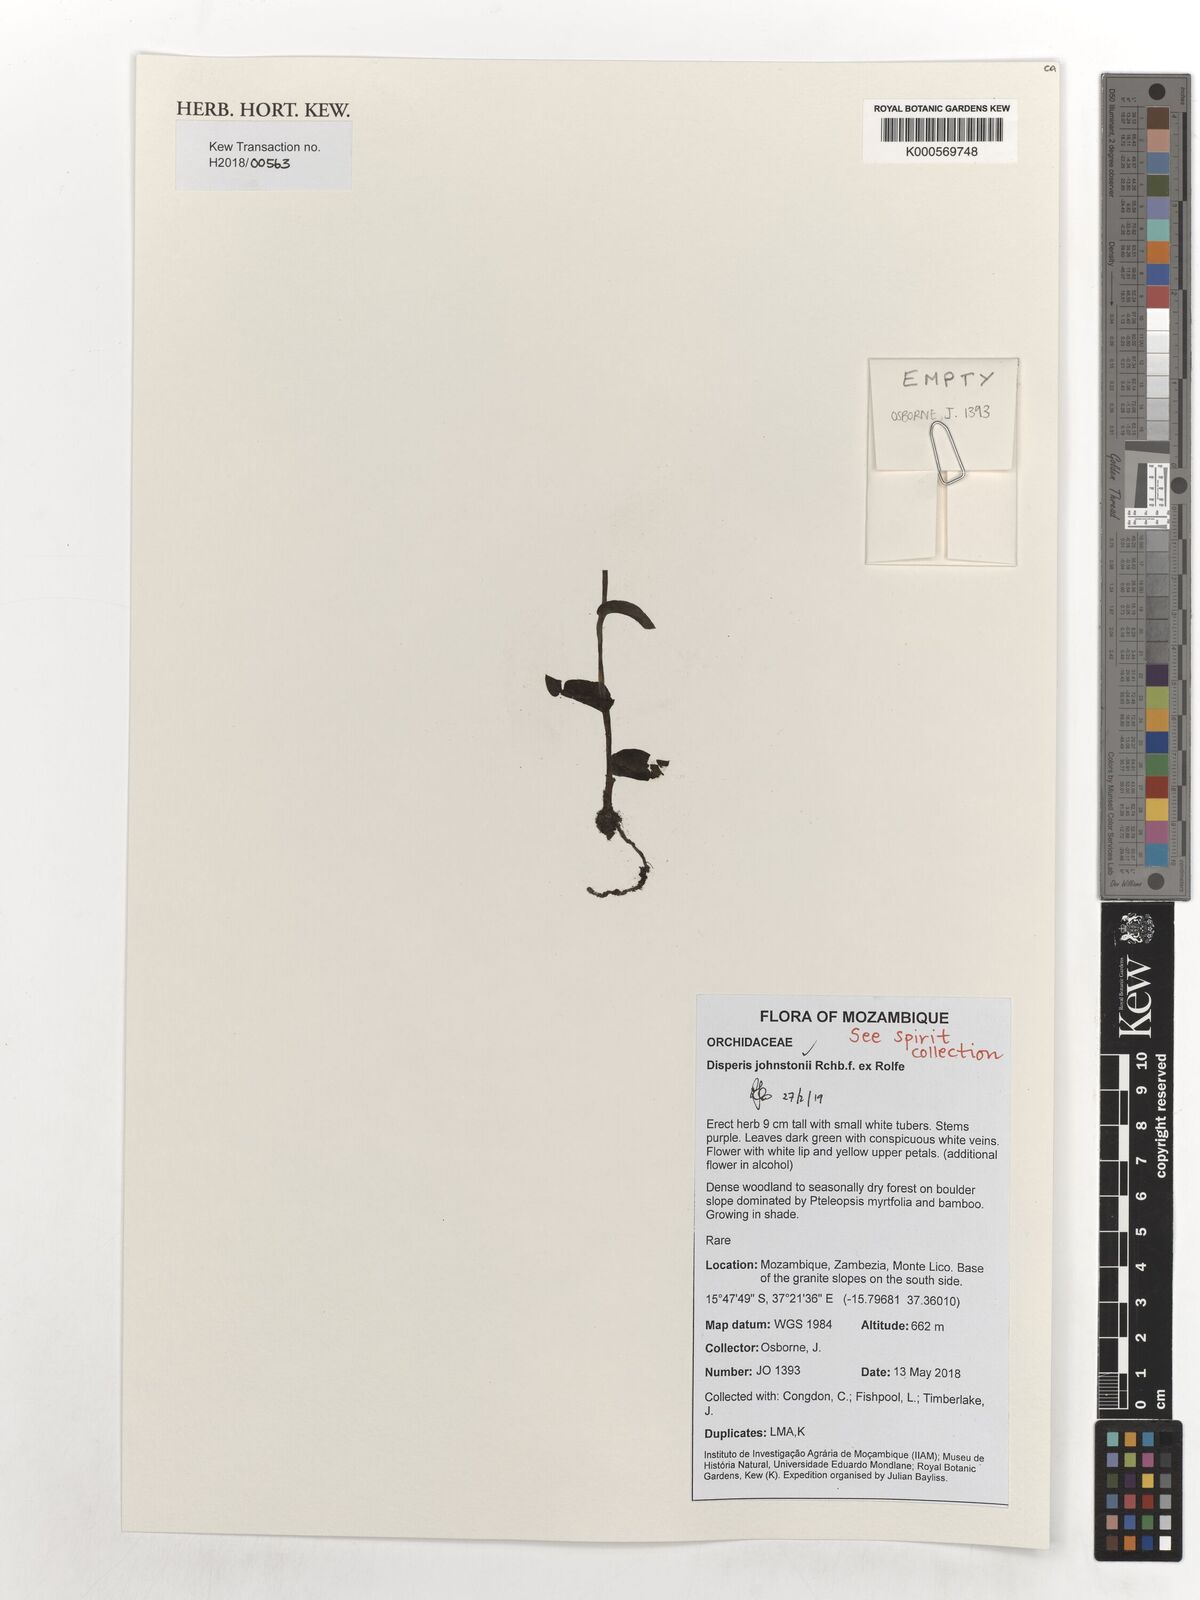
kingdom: Plantae
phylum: Tracheophyta
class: Liliopsida
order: Asparagales
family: Orchidaceae
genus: Disperis
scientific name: Disperis johnstonii
